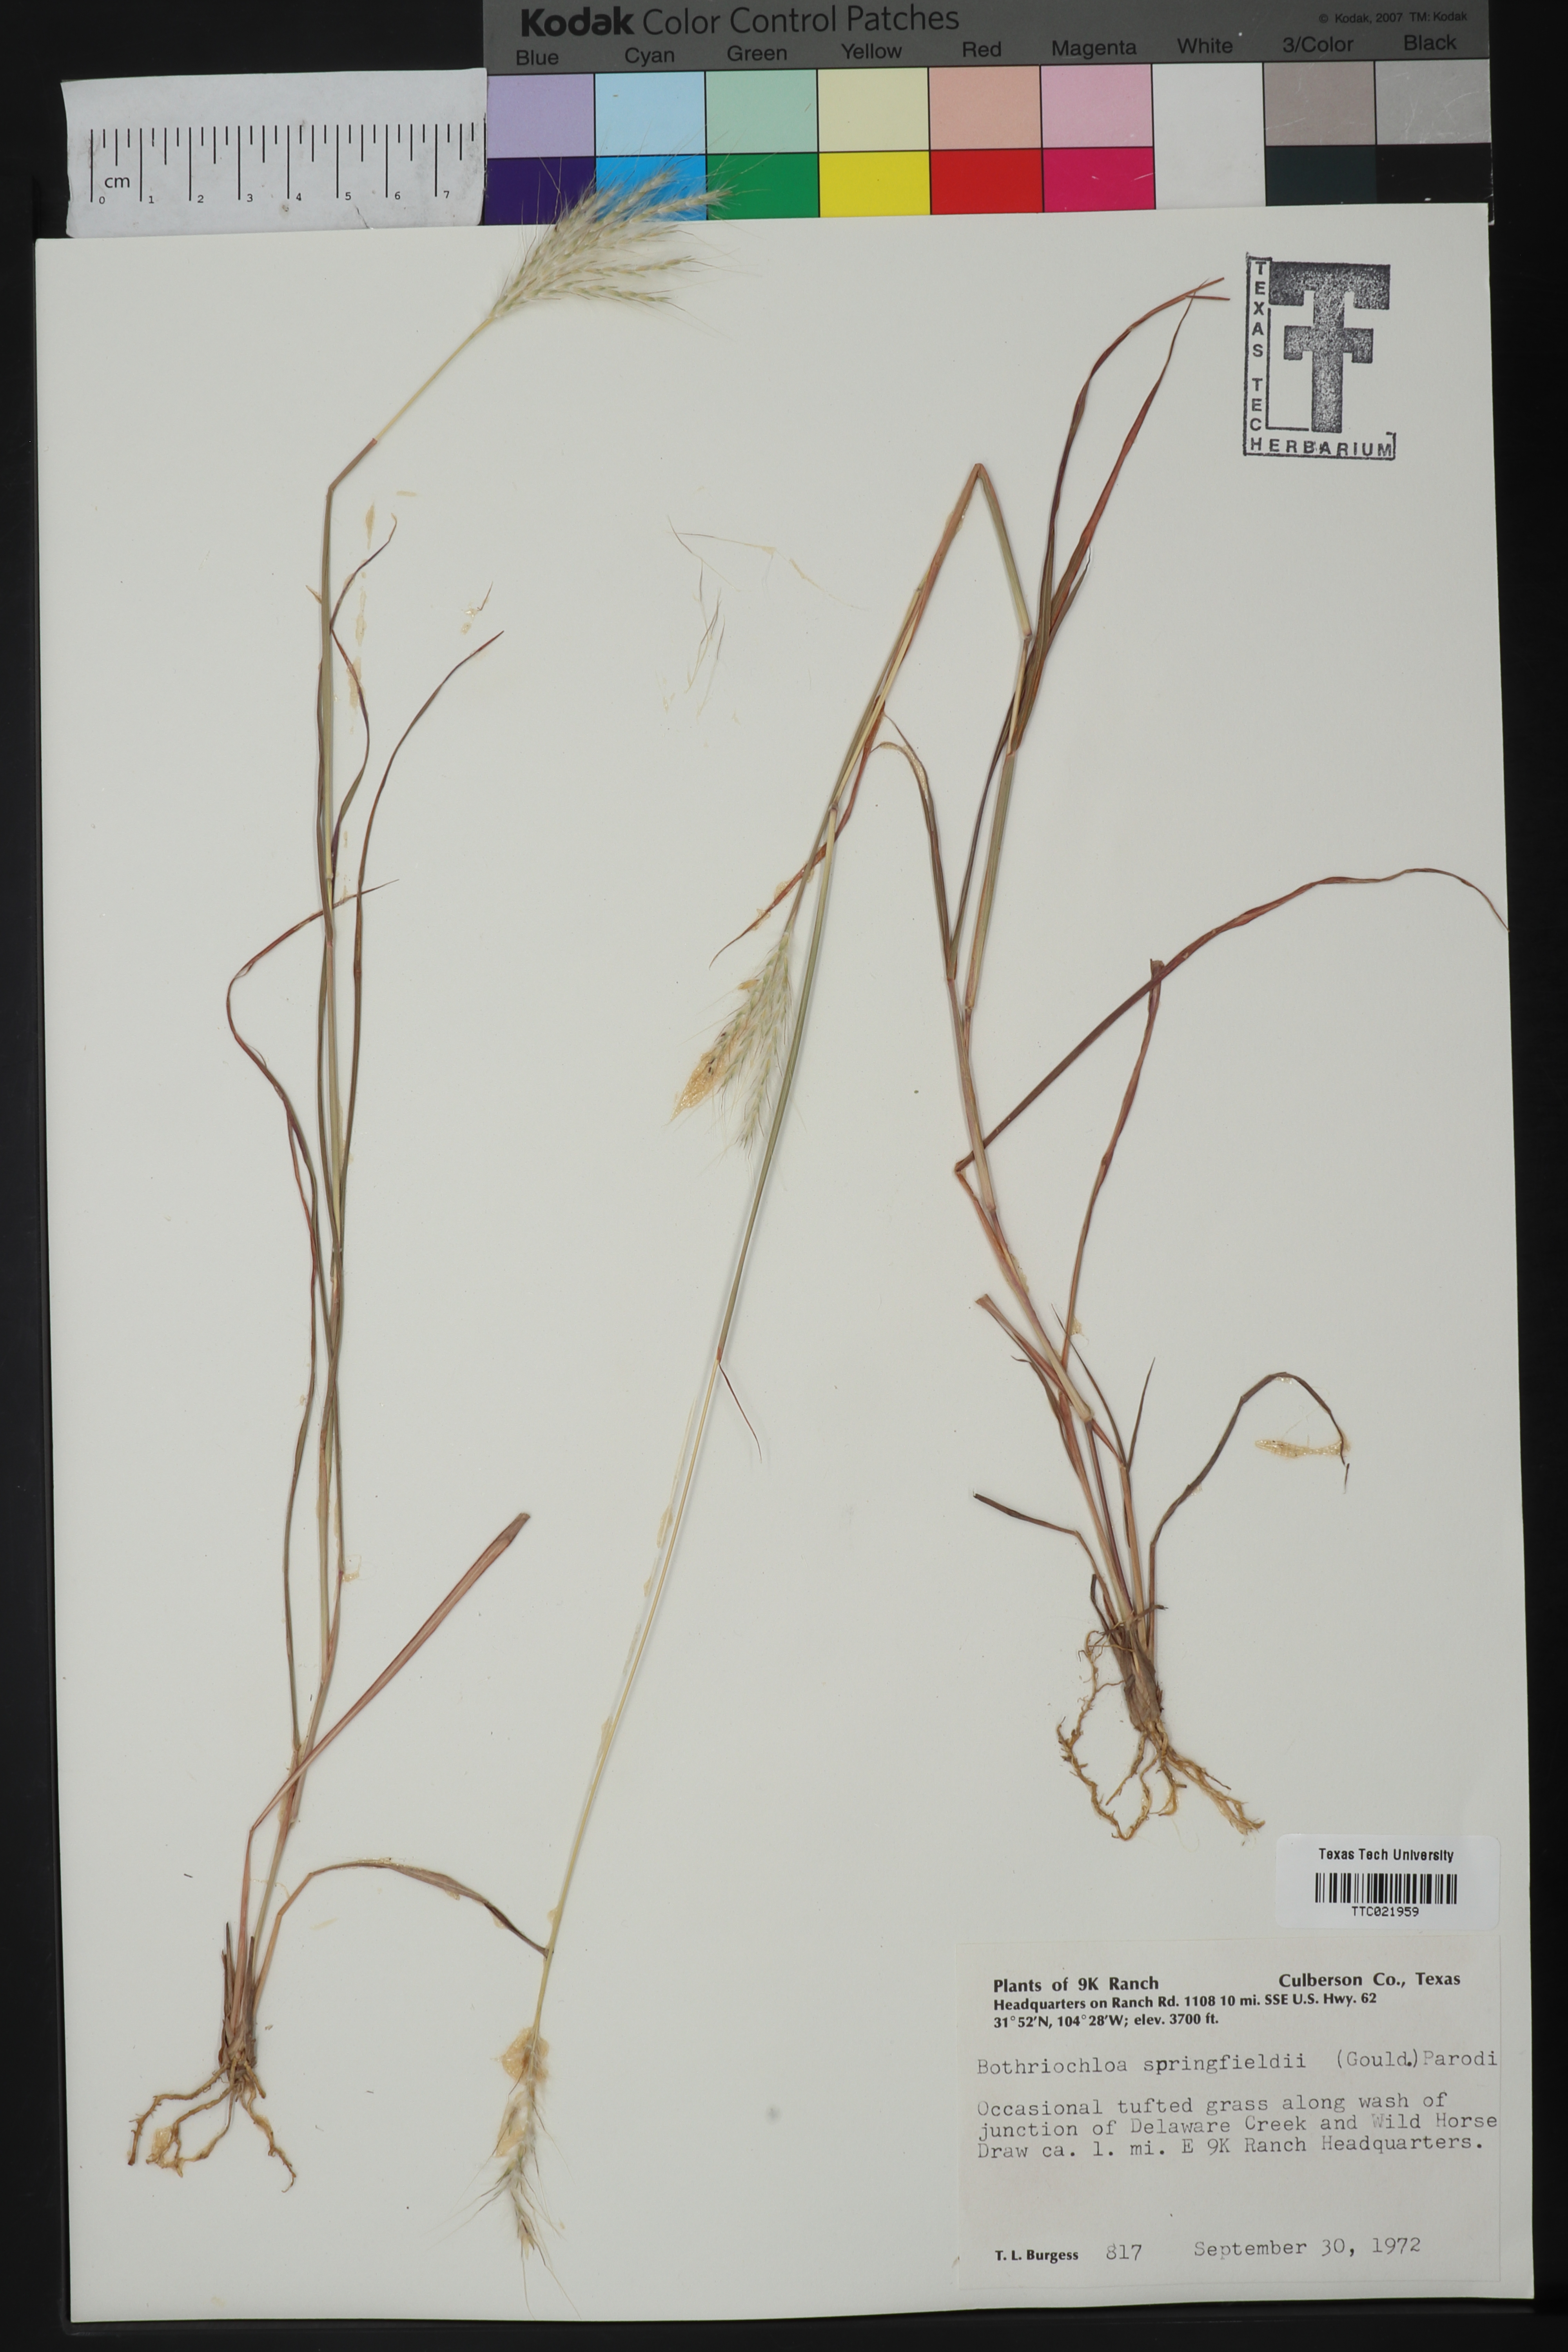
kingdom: Plantae
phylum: Tracheophyta
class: Liliopsida
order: Poales
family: Poaceae
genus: Bothriochloa
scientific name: Bothriochloa springfieldii
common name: Springfield bluestem
